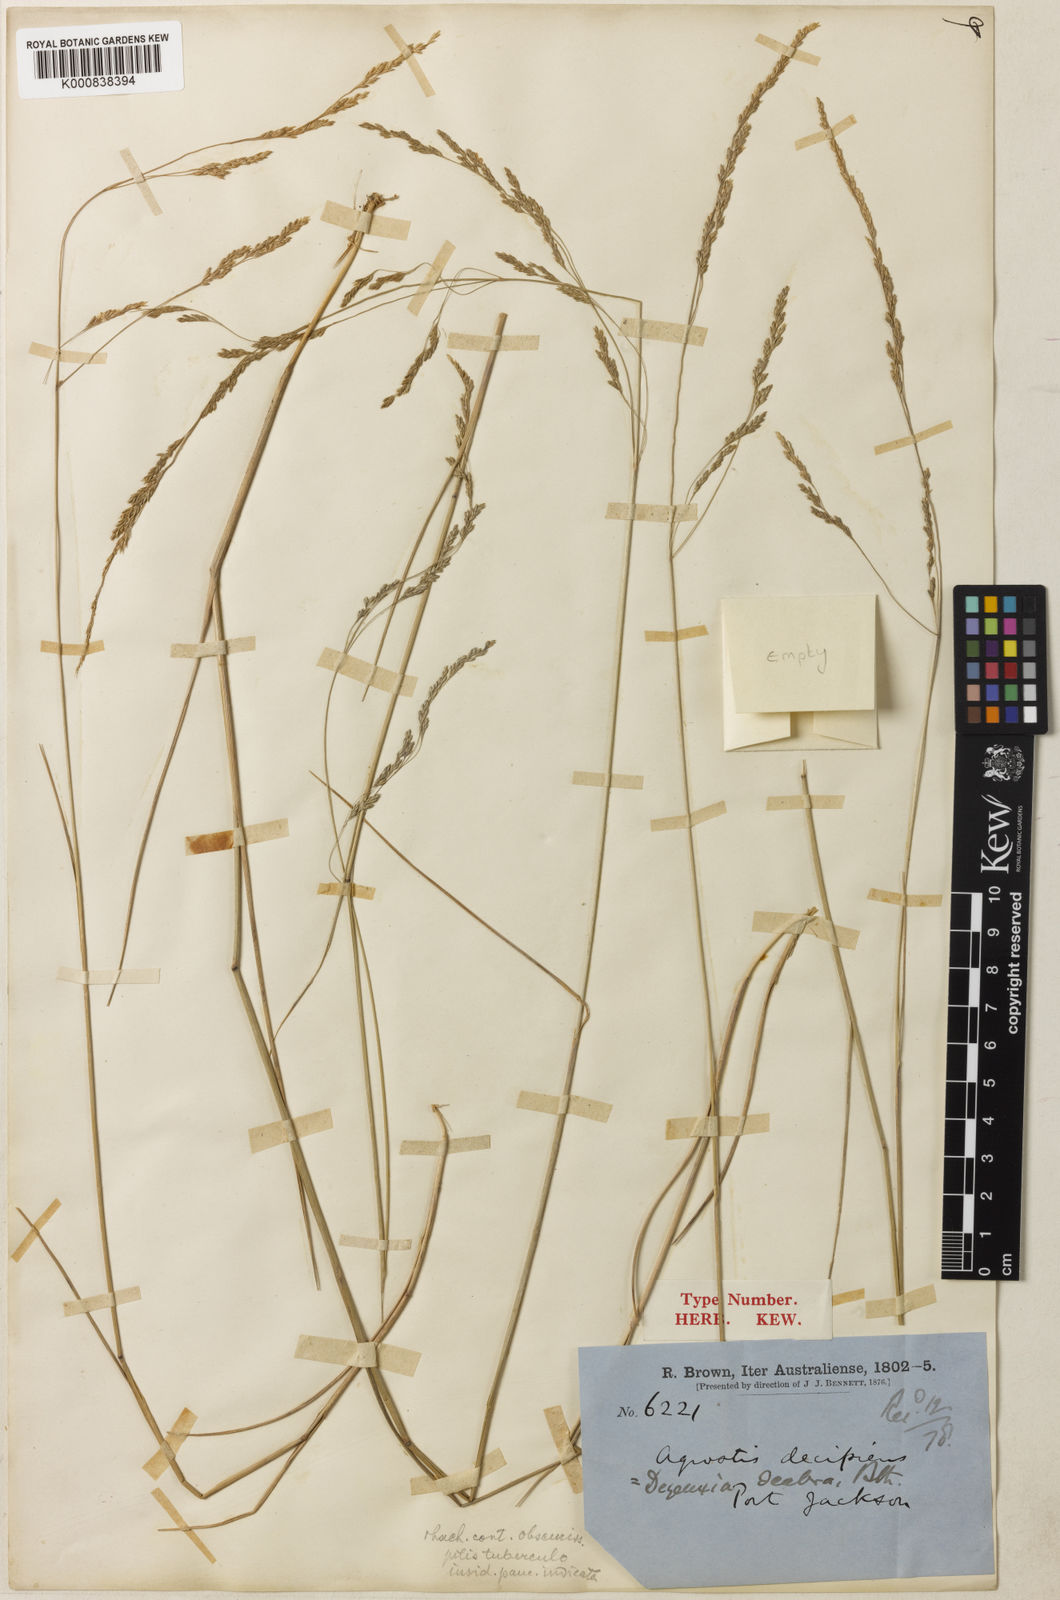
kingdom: Plantae
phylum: Tracheophyta
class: Liliopsida
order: Poales
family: Poaceae
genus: Calamagrostis
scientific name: Calamagrostis decipiens
